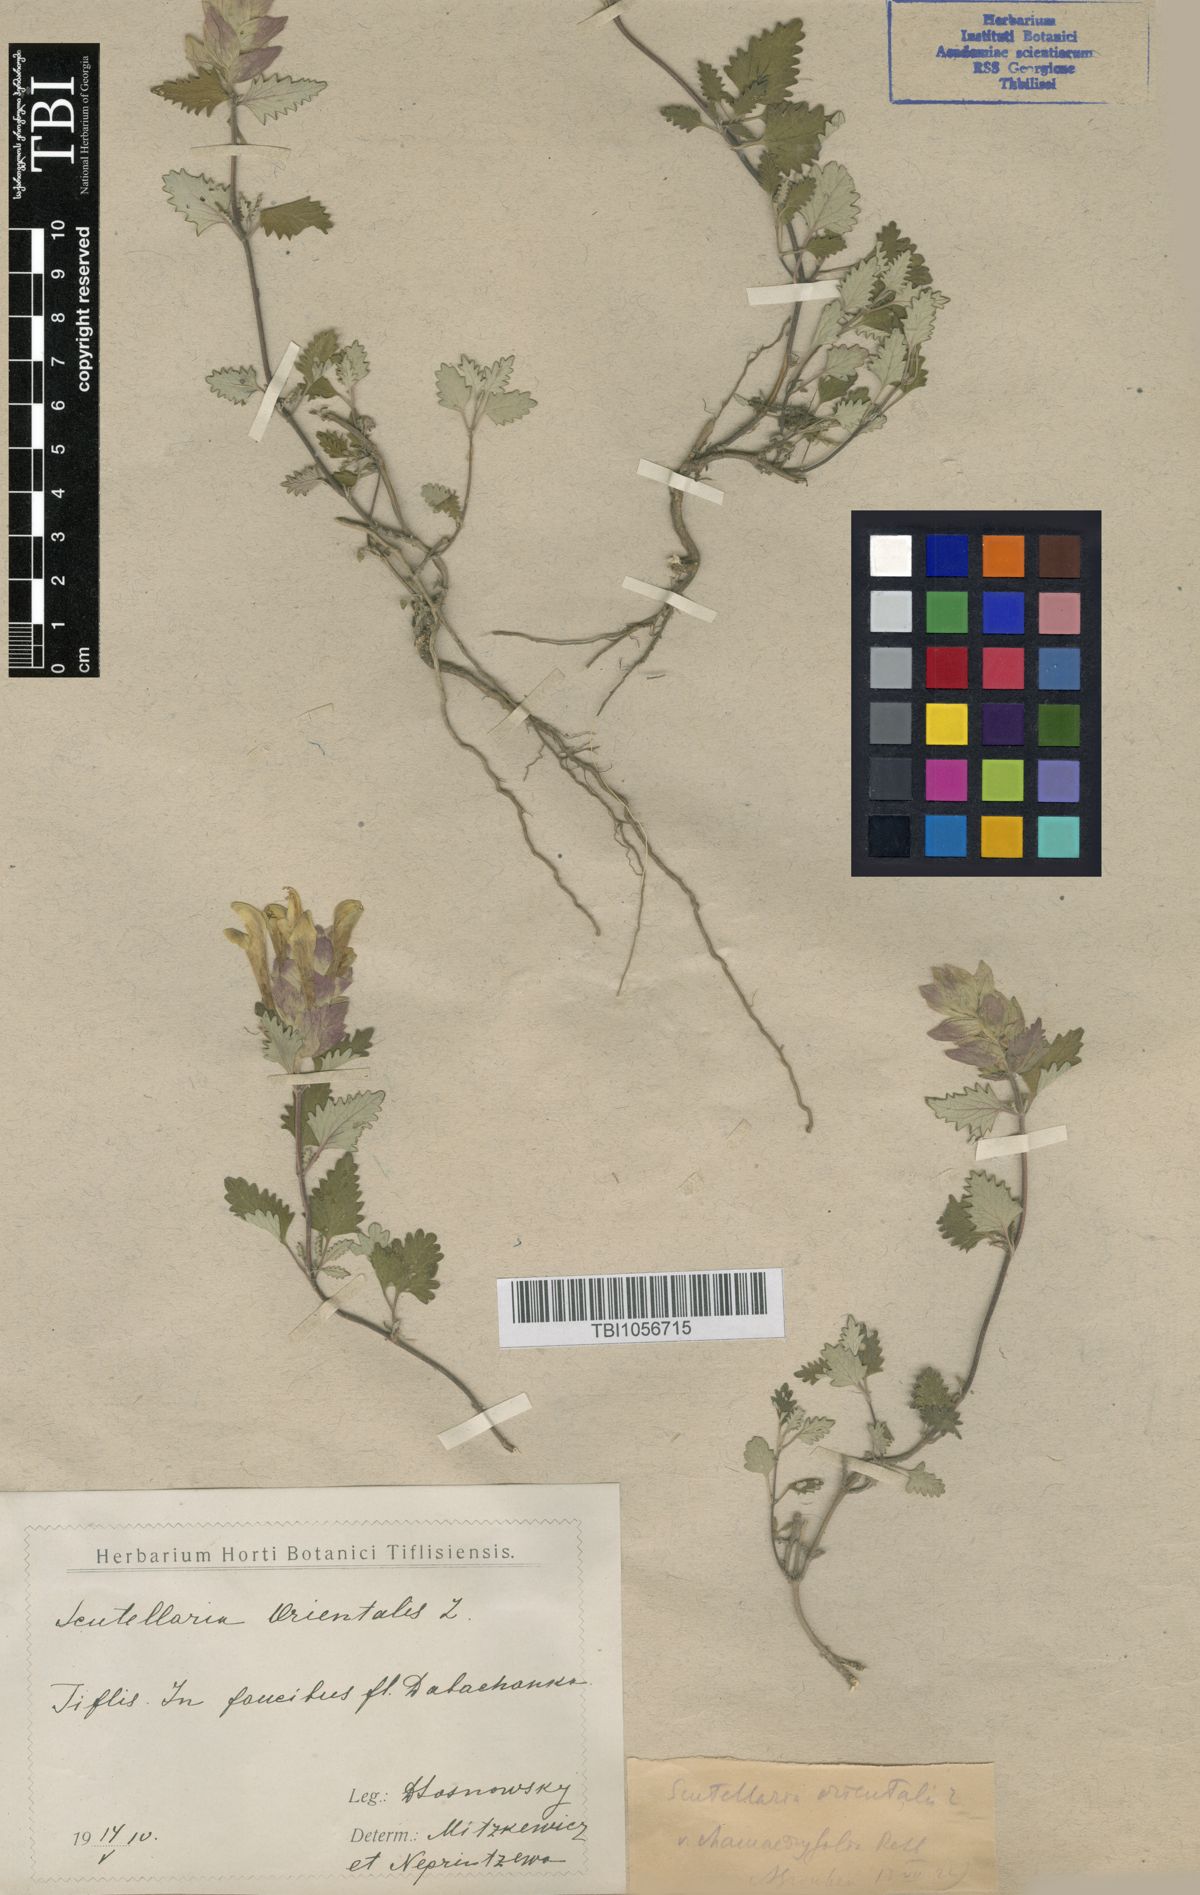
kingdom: Plantae
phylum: Tracheophyta
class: Magnoliopsida
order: Lamiales
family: Lamiaceae
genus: Scutellaria
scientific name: Scutellaria orientalis
